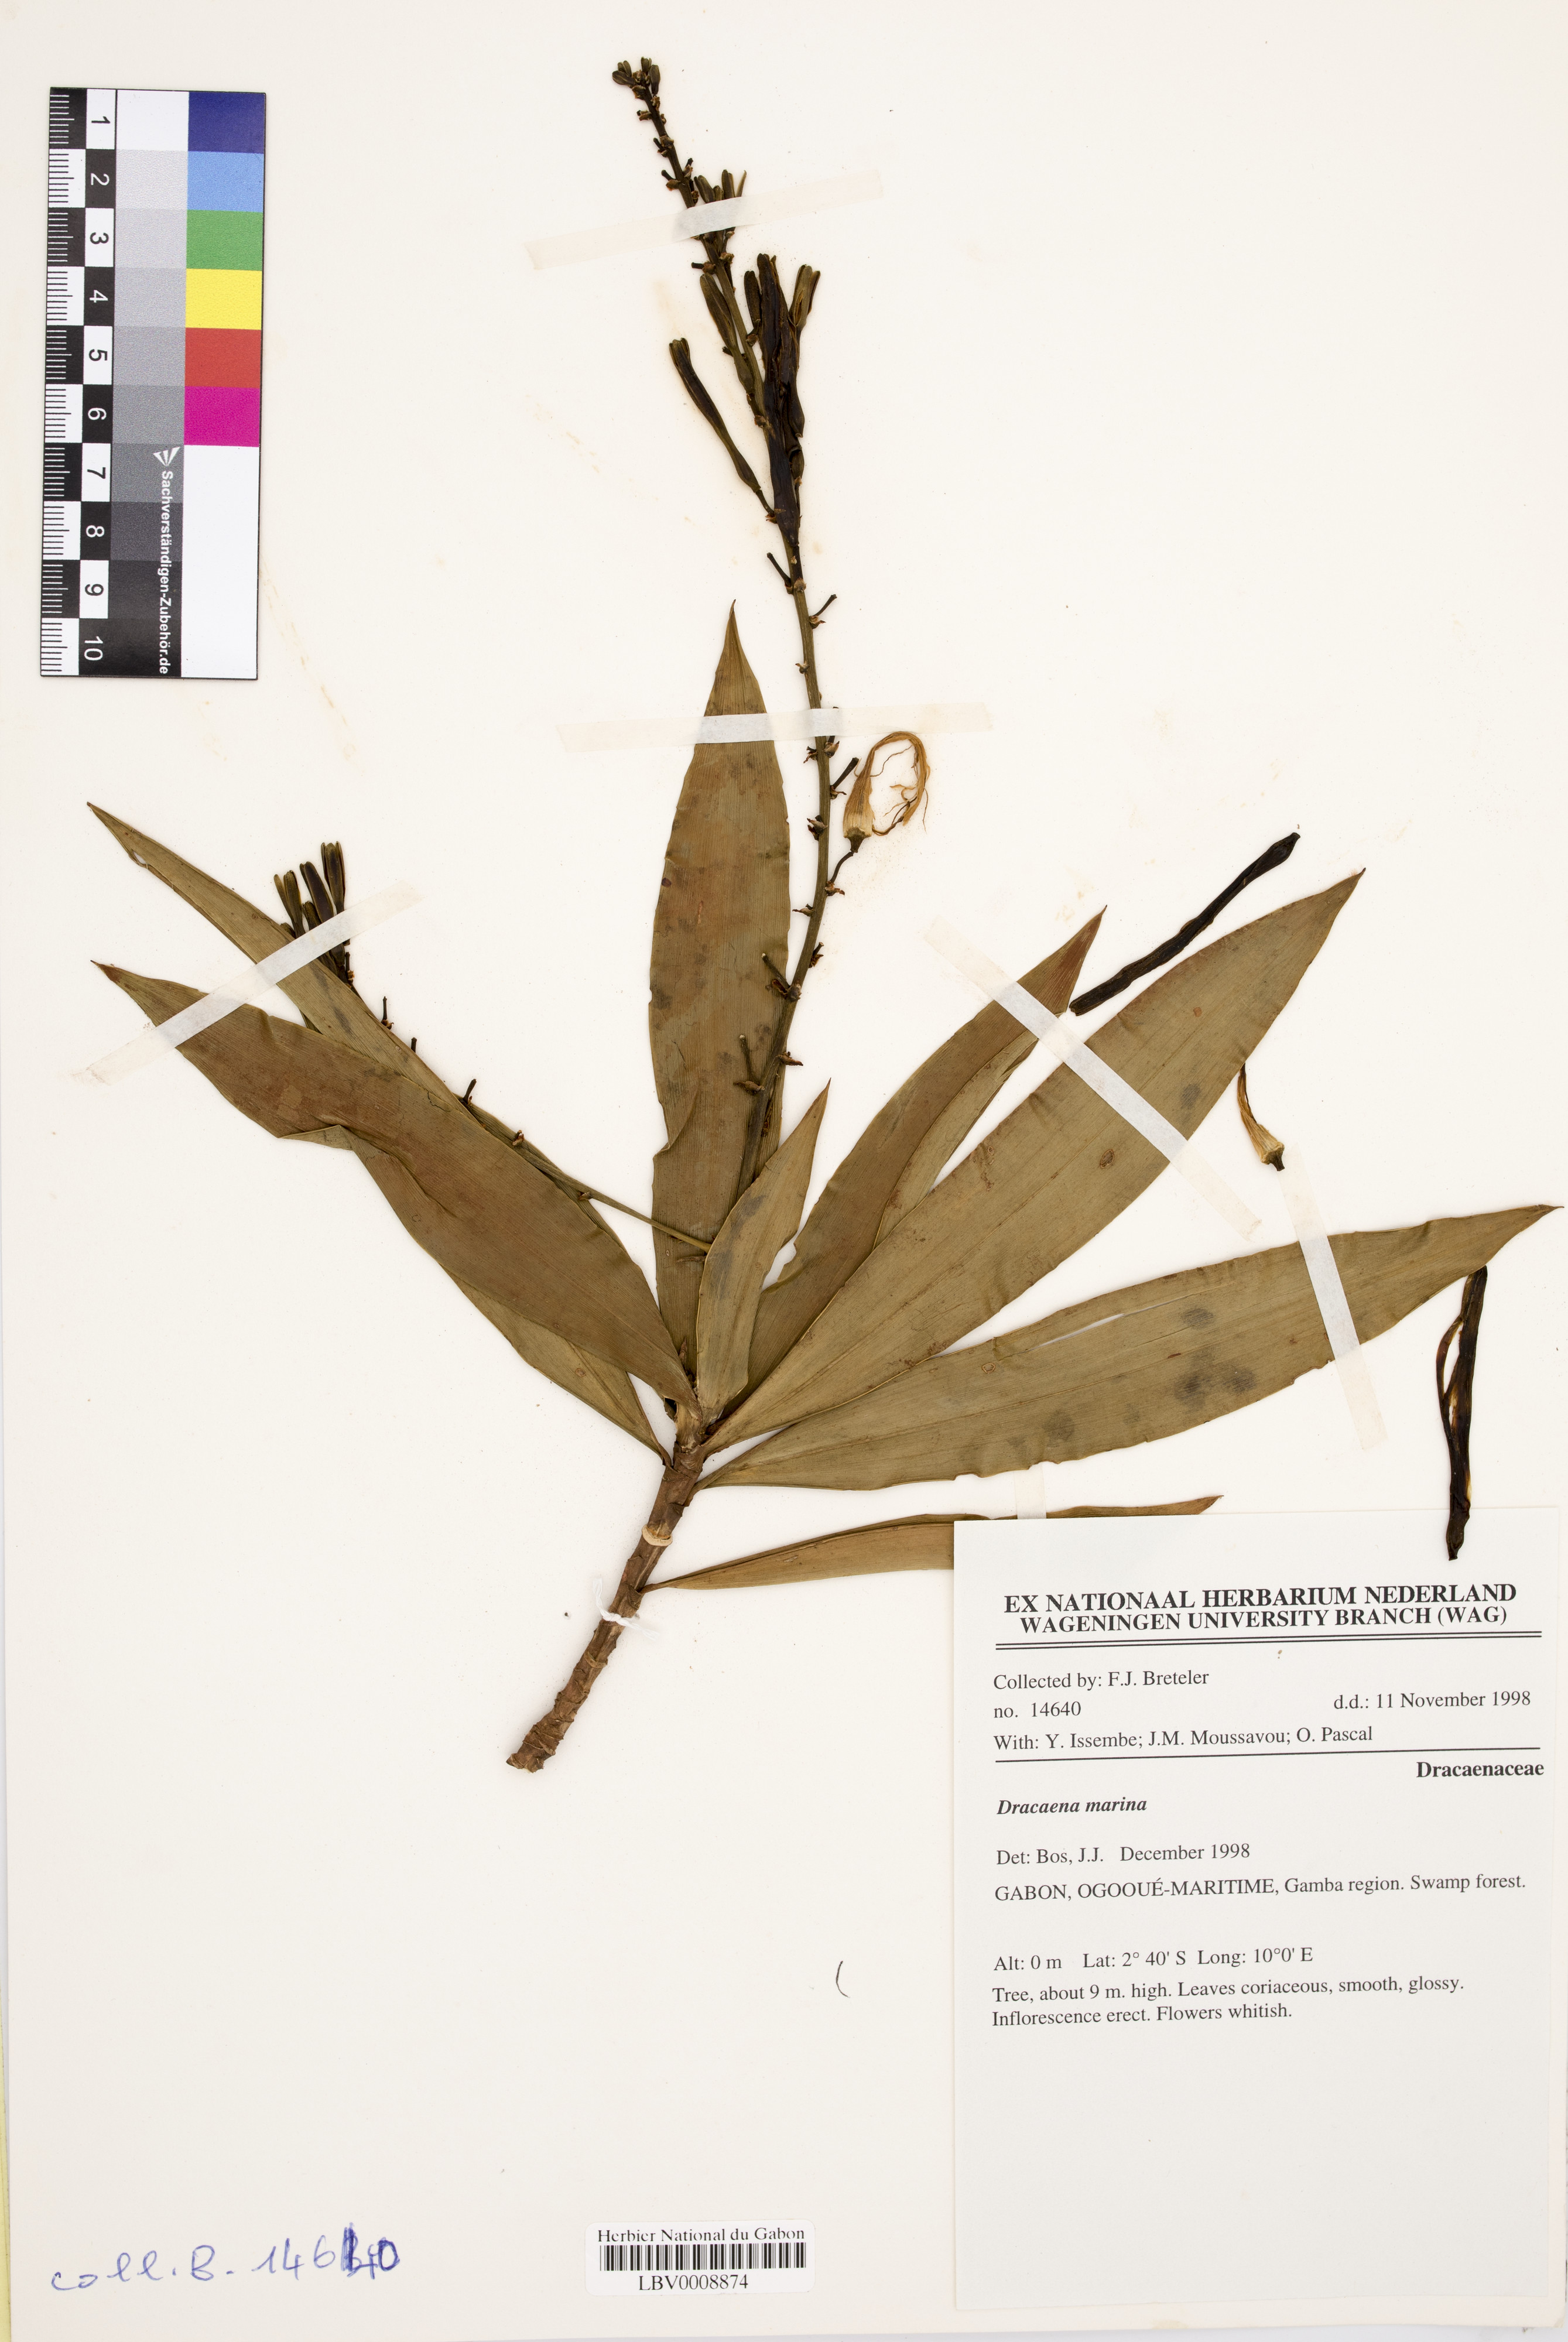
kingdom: Plantae
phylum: Tracheophyta
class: Liliopsida
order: Asparagales
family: Asparagaceae
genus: Dracaena
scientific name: Dracaena marina
